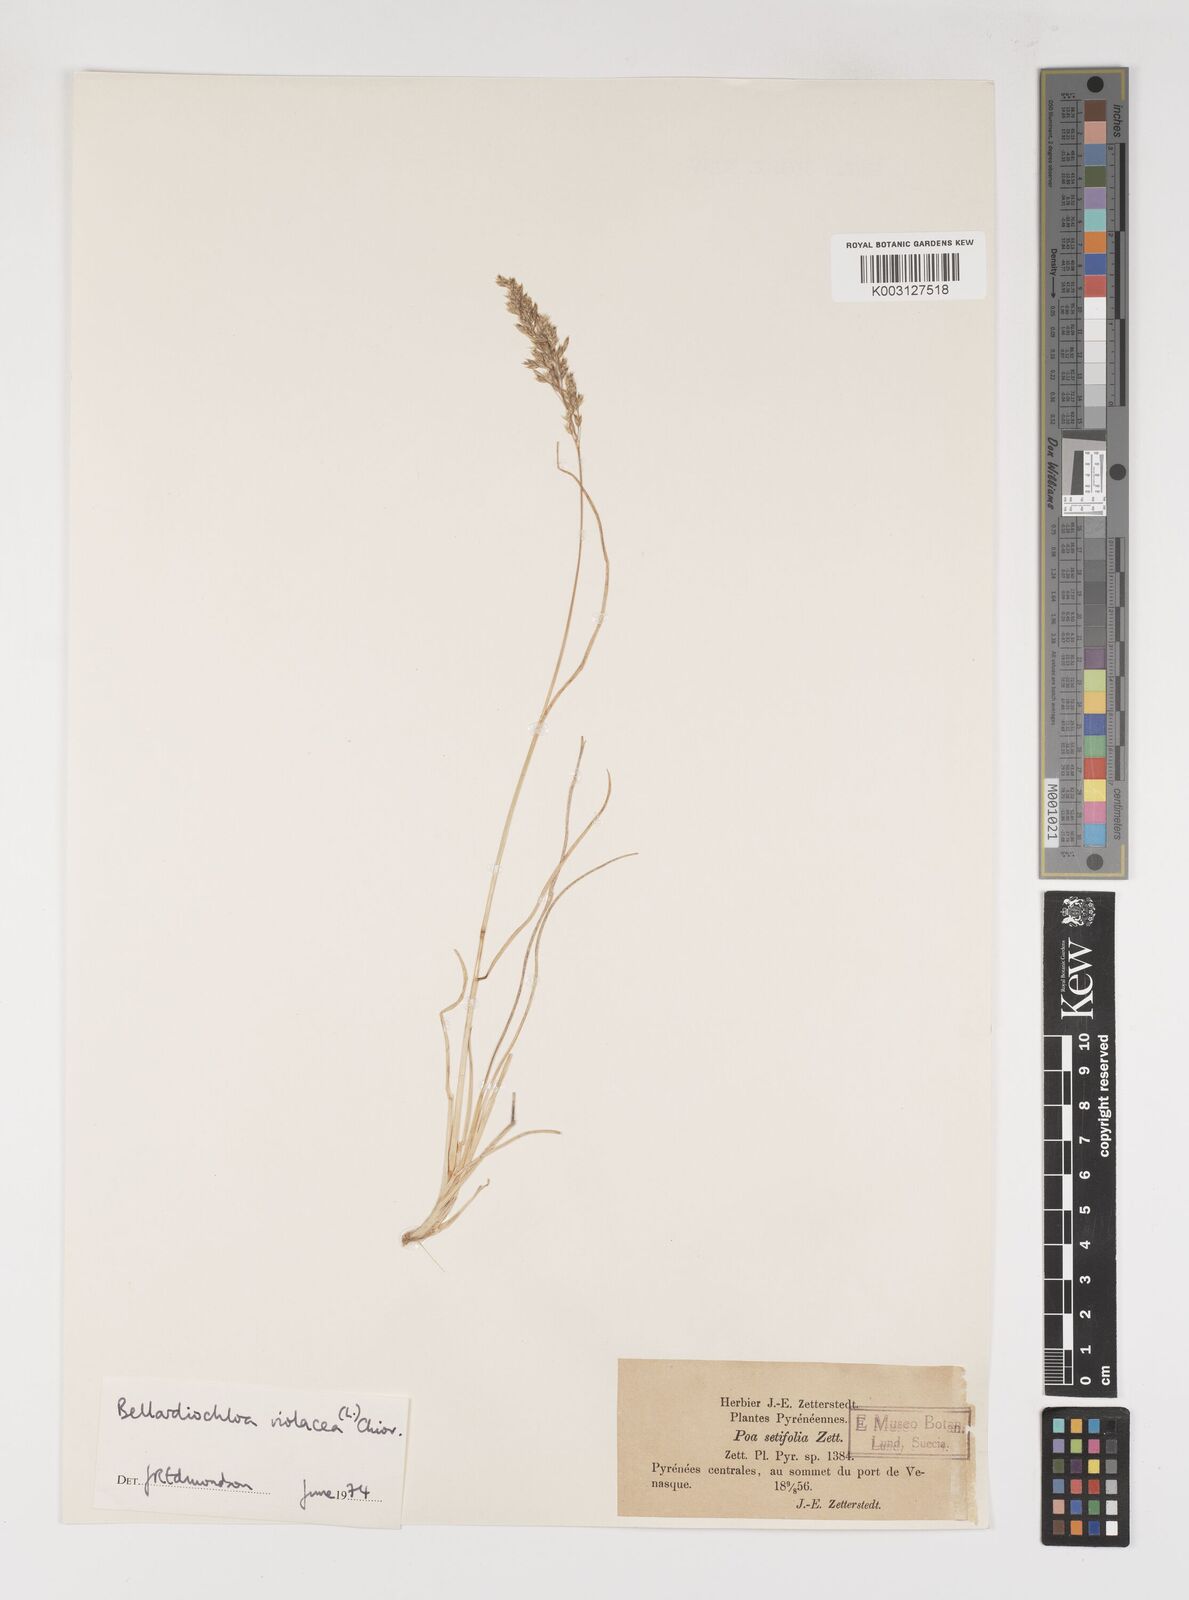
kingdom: Plantae
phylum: Tracheophyta
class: Liliopsida
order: Poales
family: Poaceae
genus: Bellardiochloa
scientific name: Bellardiochloa variegata
